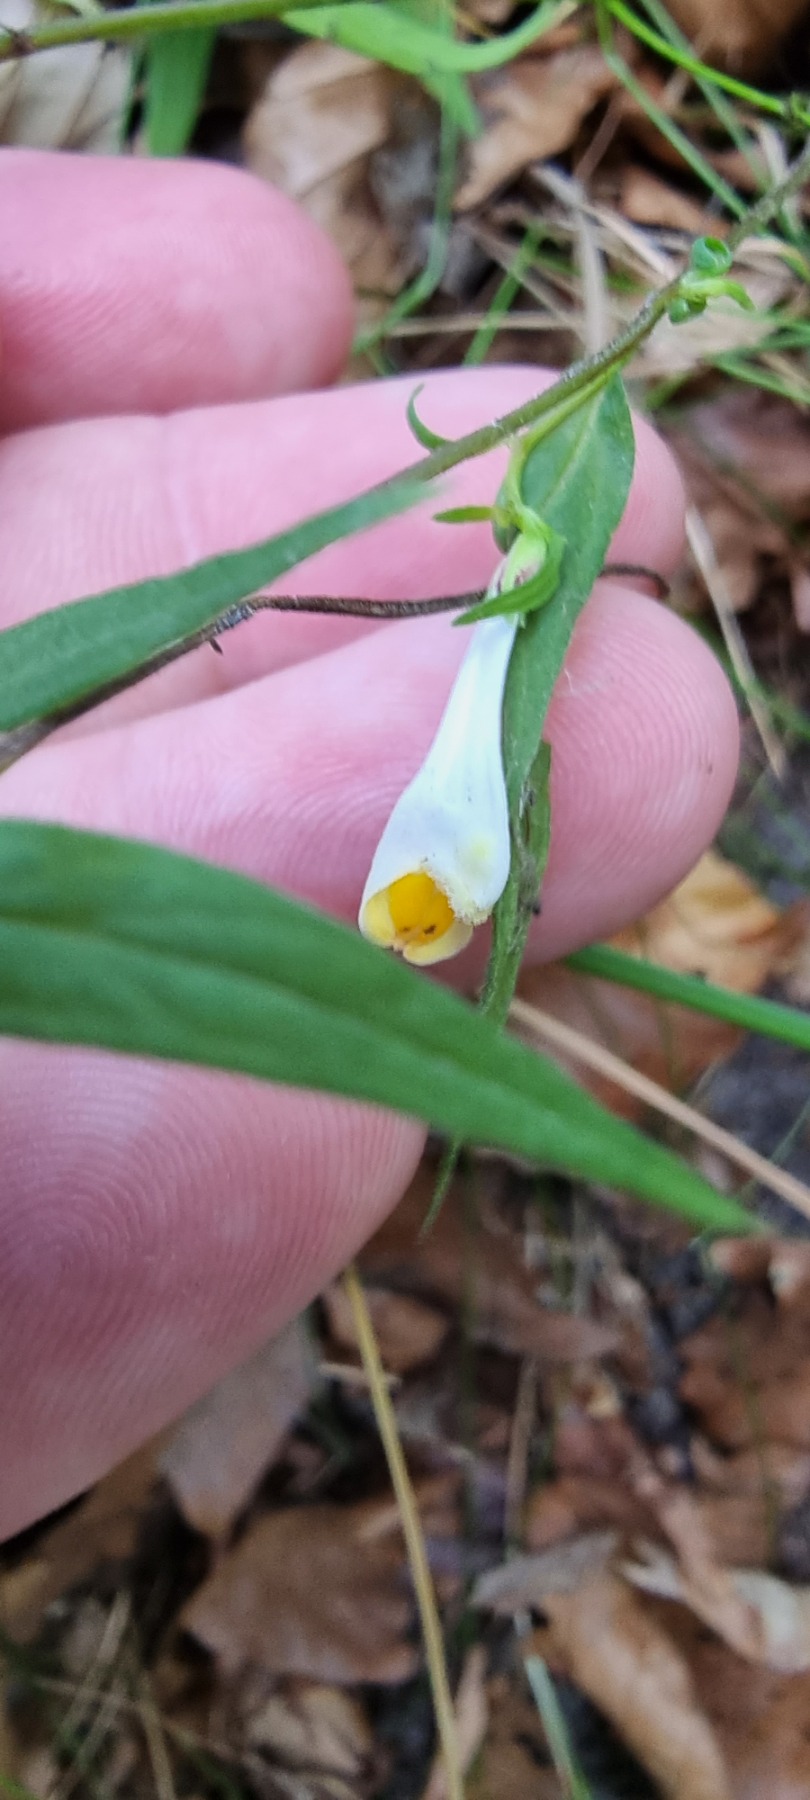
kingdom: Plantae
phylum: Tracheophyta
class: Magnoliopsida
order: Lamiales
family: Orobanchaceae
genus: Melampyrum
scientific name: Melampyrum pratense
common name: Almindelig kohvede
